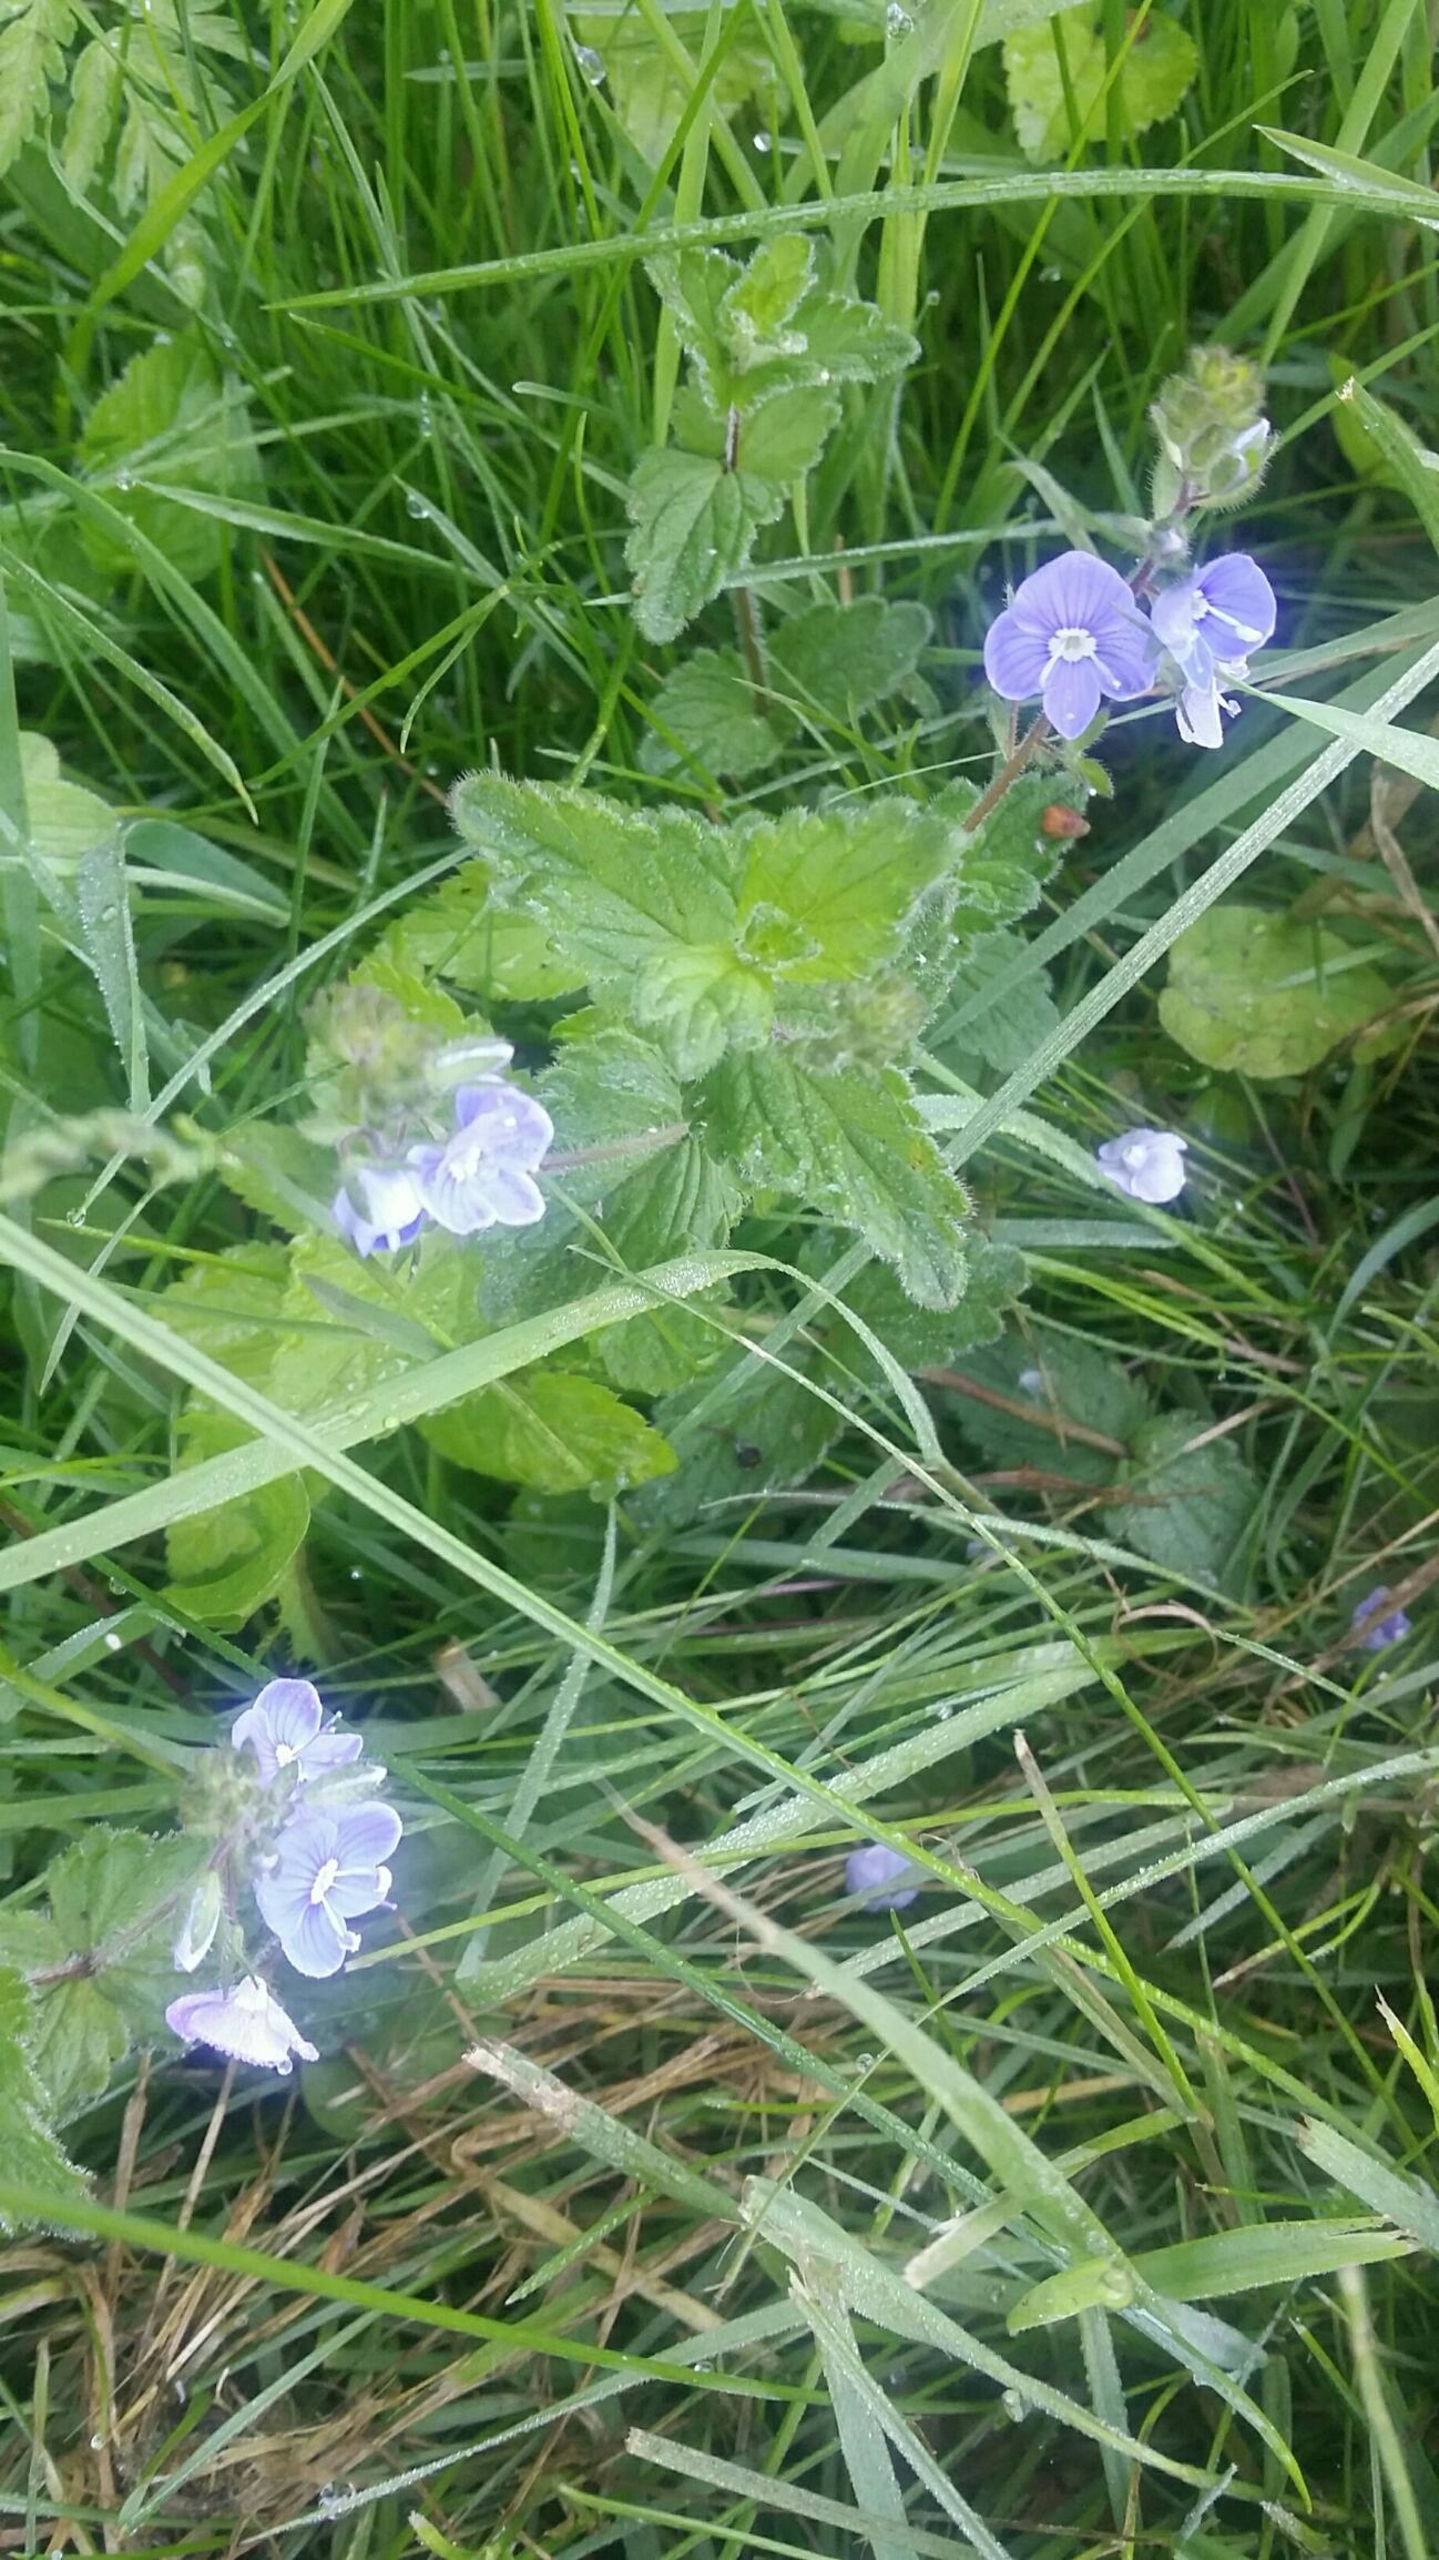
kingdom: Plantae
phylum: Tracheophyta
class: Magnoliopsida
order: Lamiales
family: Plantaginaceae
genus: Veronica
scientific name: Veronica chamaedrys
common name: Tveskægget ærenpris
